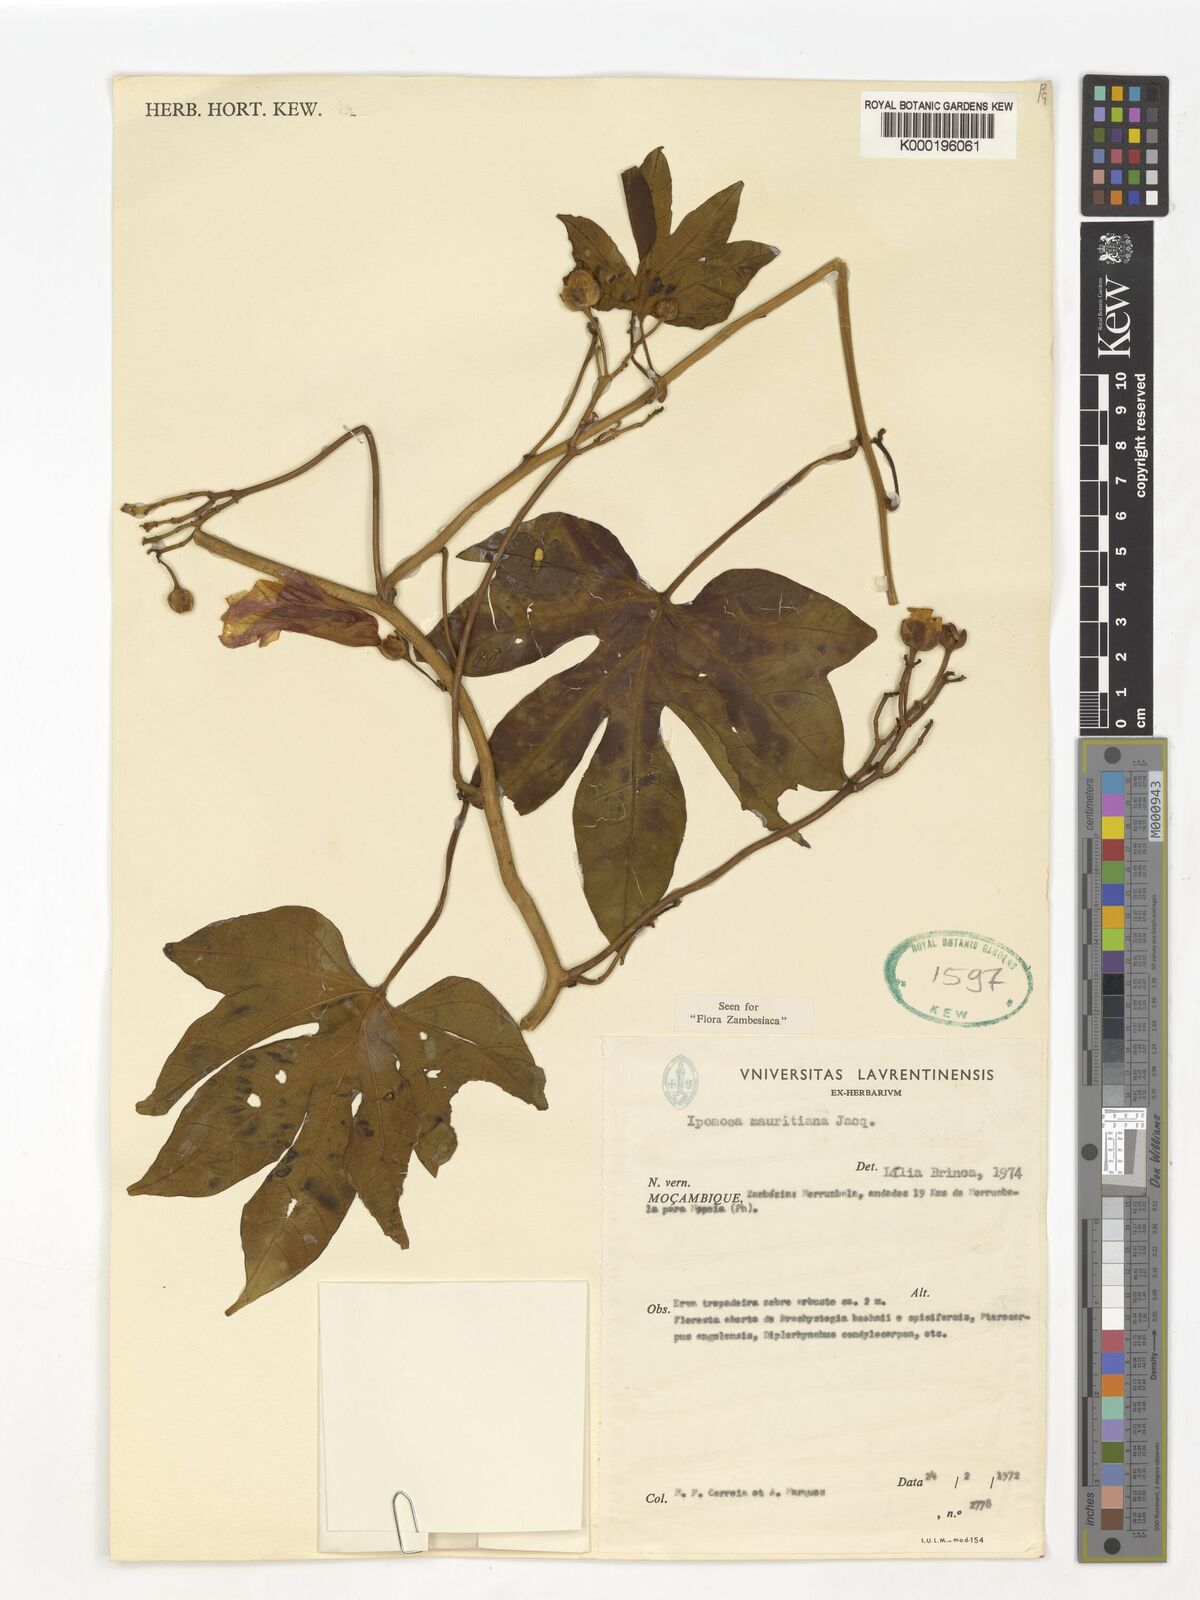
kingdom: Plantae
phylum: Tracheophyta
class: Magnoliopsida
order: Solanales
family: Convolvulaceae
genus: Ipomoea
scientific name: Ipomoea mauritiana
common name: Mauritanian convolvulus
